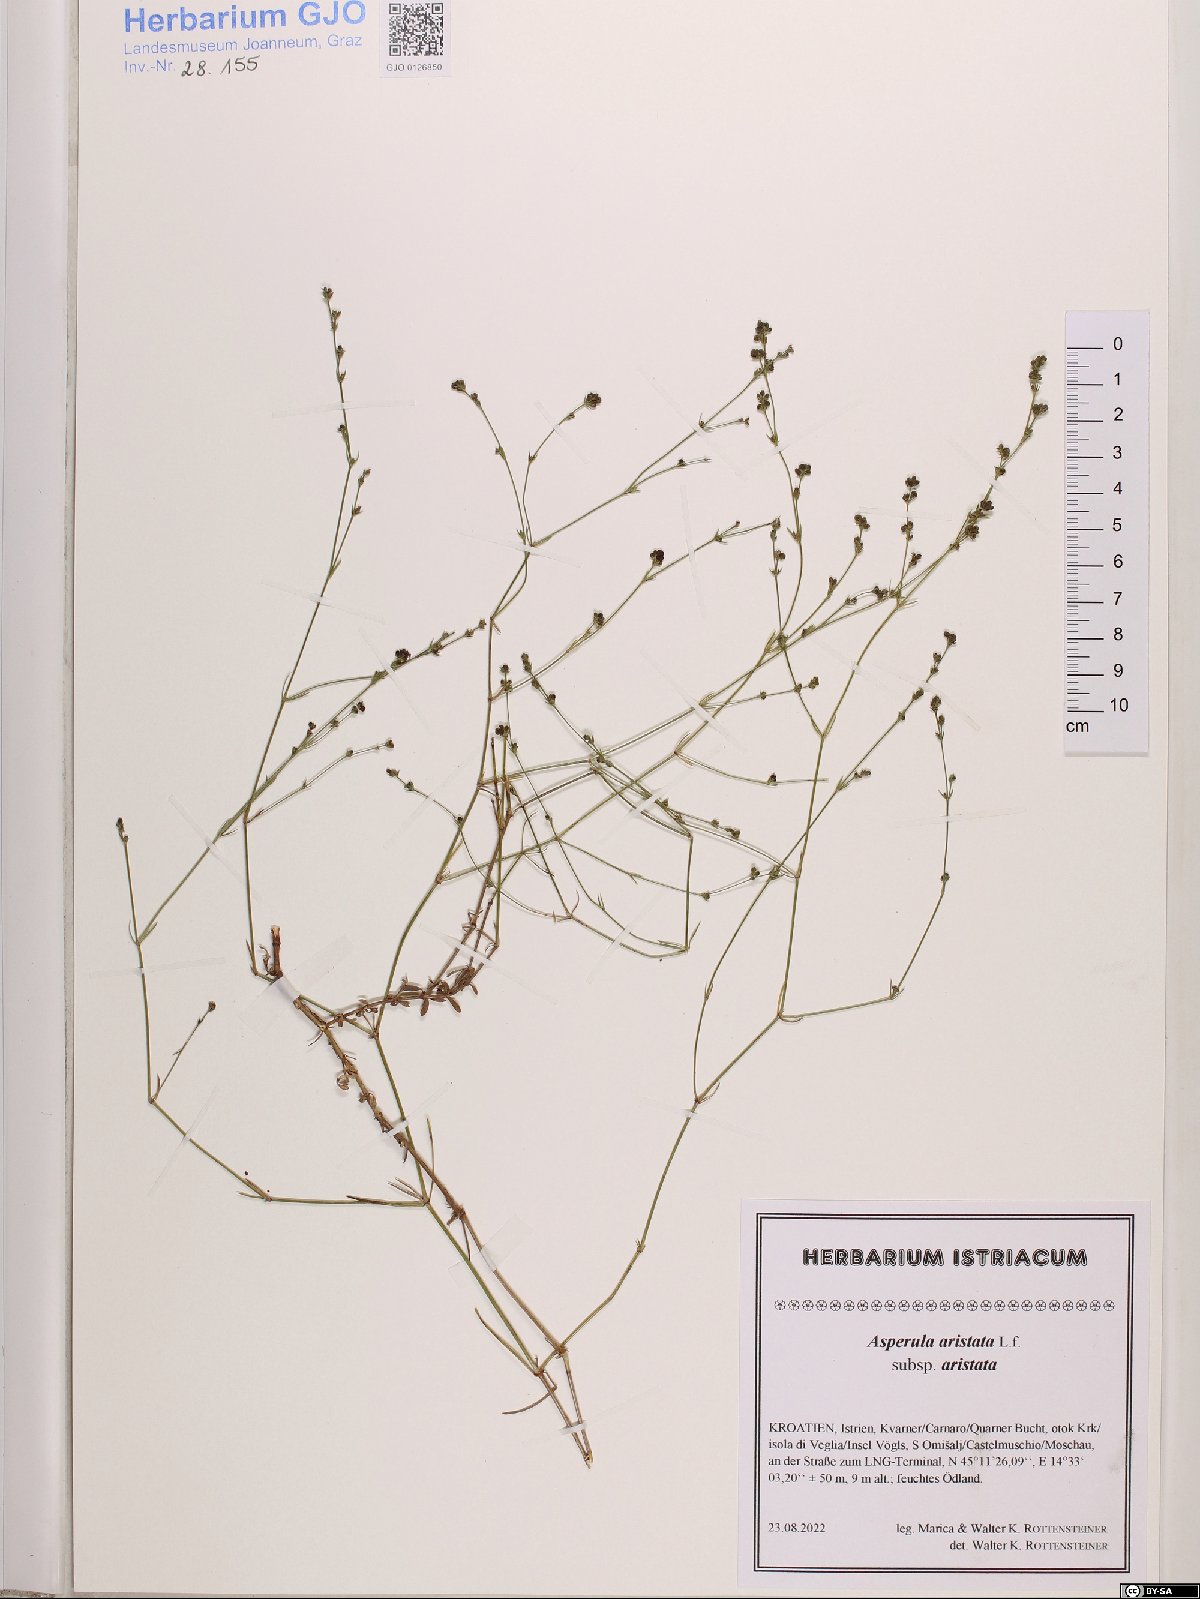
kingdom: Plantae
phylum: Tracheophyta
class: Magnoliopsida
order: Gentianales
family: Rubiaceae
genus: Cynanchica
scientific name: Cynanchica aristata
